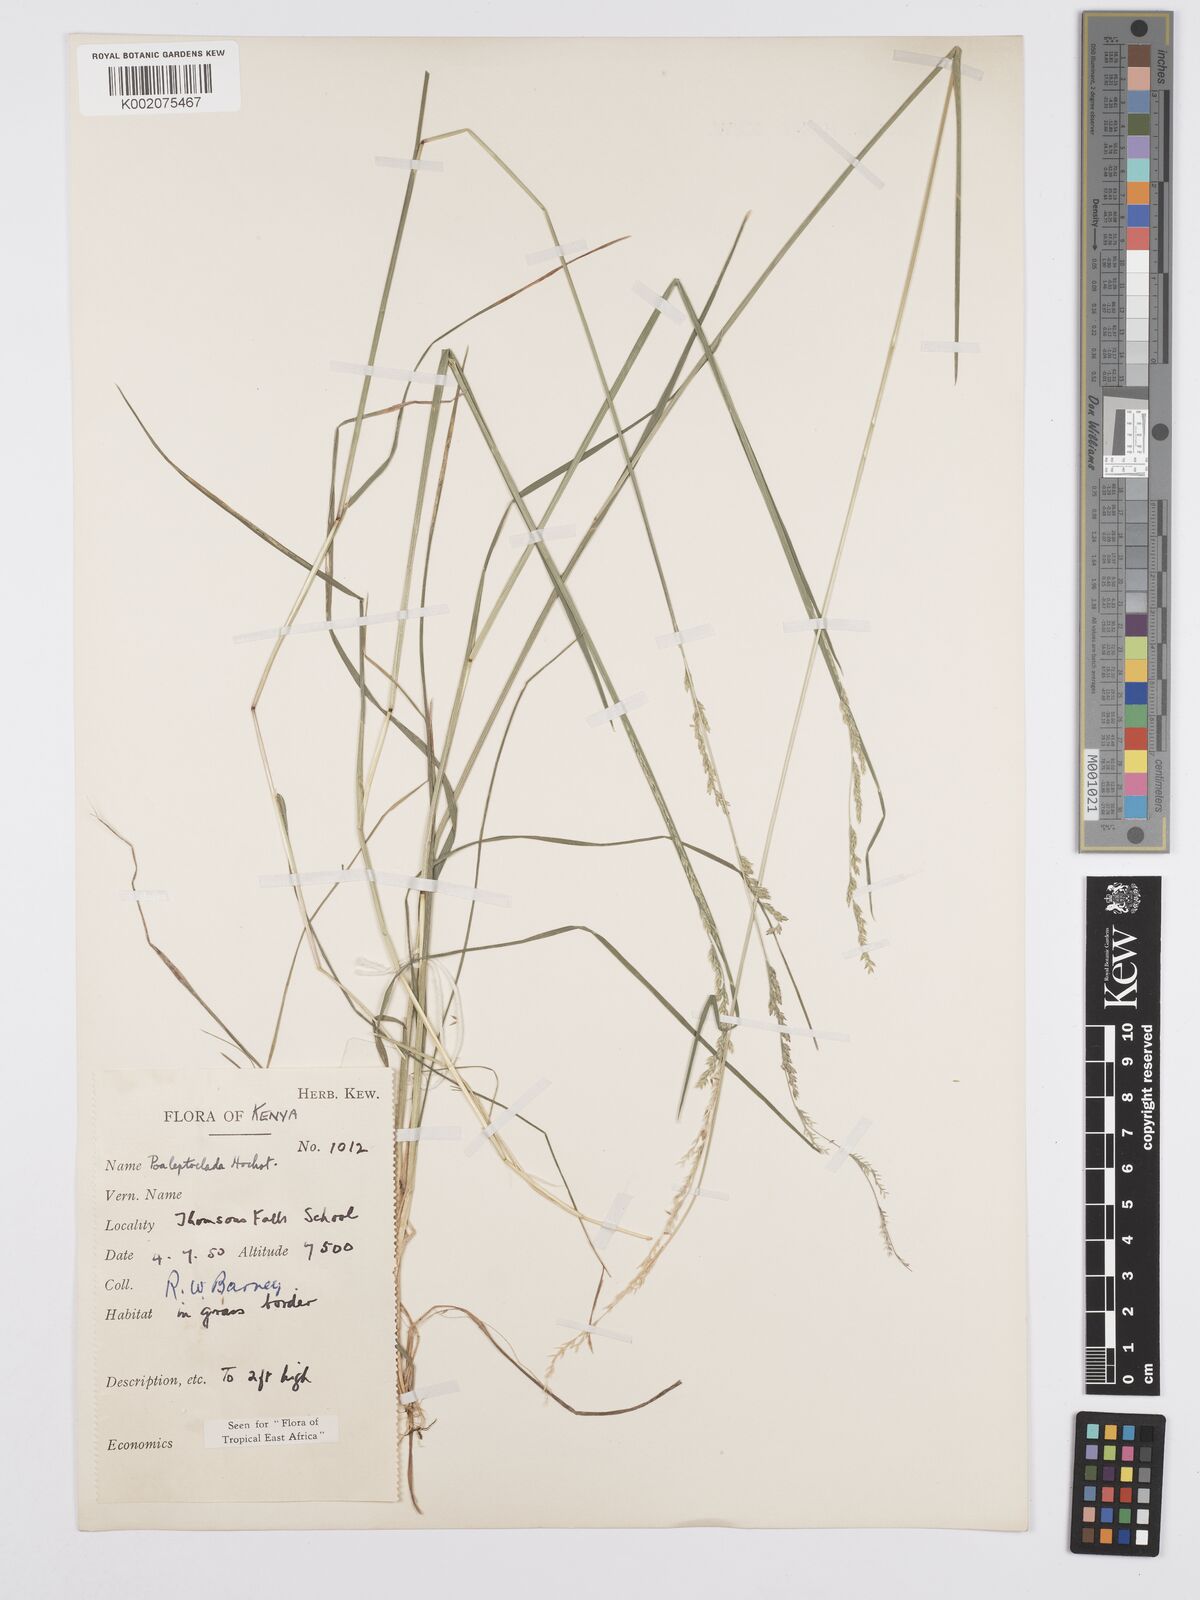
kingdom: Plantae
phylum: Tracheophyta
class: Liliopsida
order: Poales
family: Poaceae
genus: Poa
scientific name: Poa leptoclada
